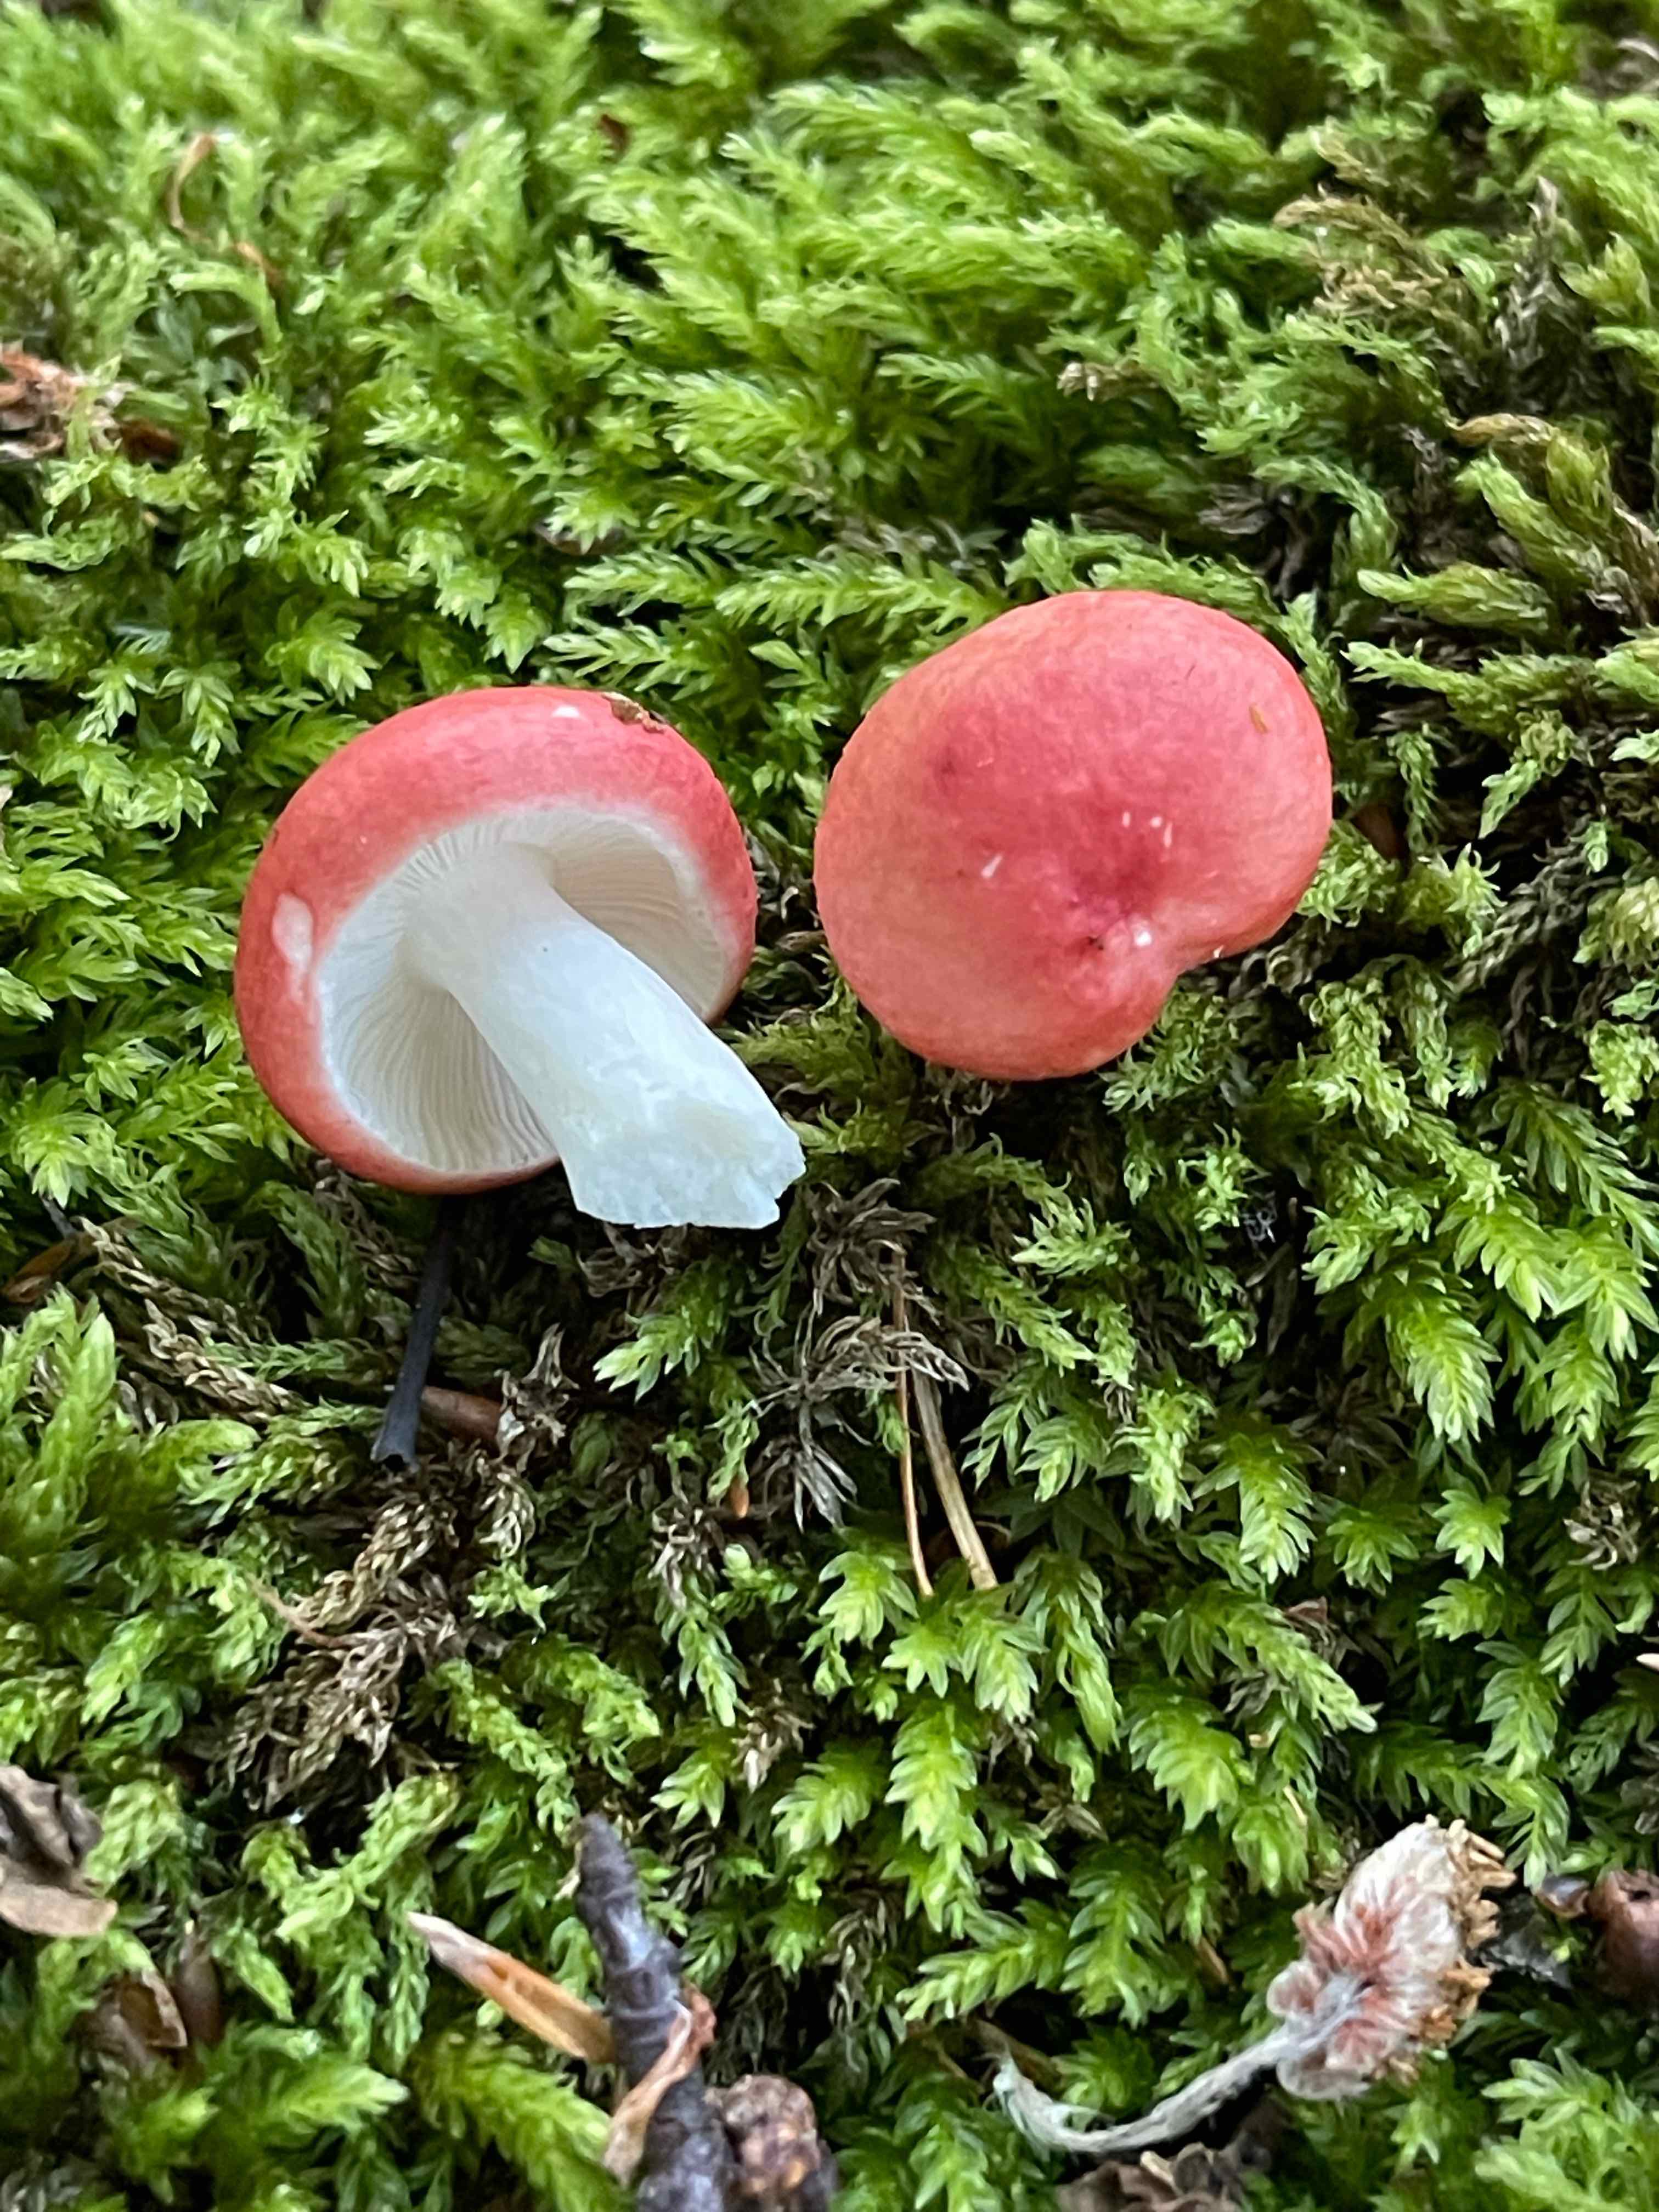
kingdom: Fungi
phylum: Basidiomycota
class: Agaricomycetes
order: Russulales
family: Russulaceae
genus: Russula
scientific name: Russula
